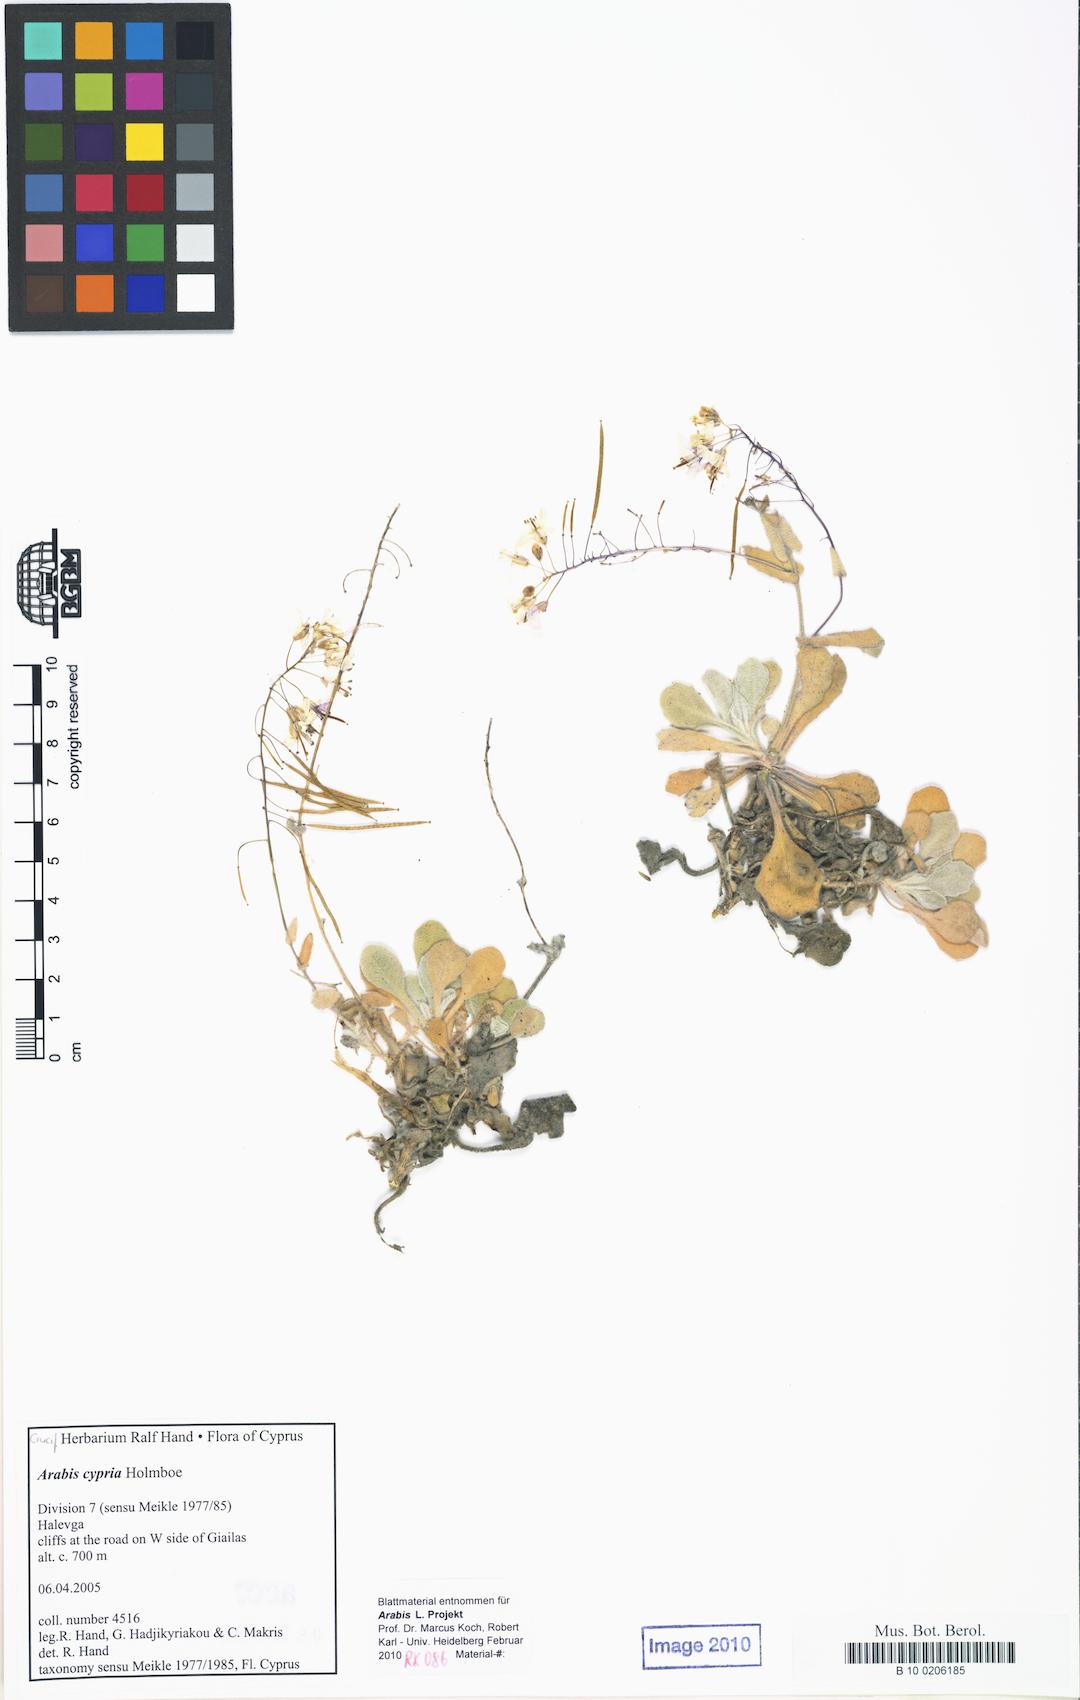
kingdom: Plantae
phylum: Tracheophyta
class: Magnoliopsida
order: Brassicales
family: Brassicaceae
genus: Arabis
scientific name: Arabis cypria
